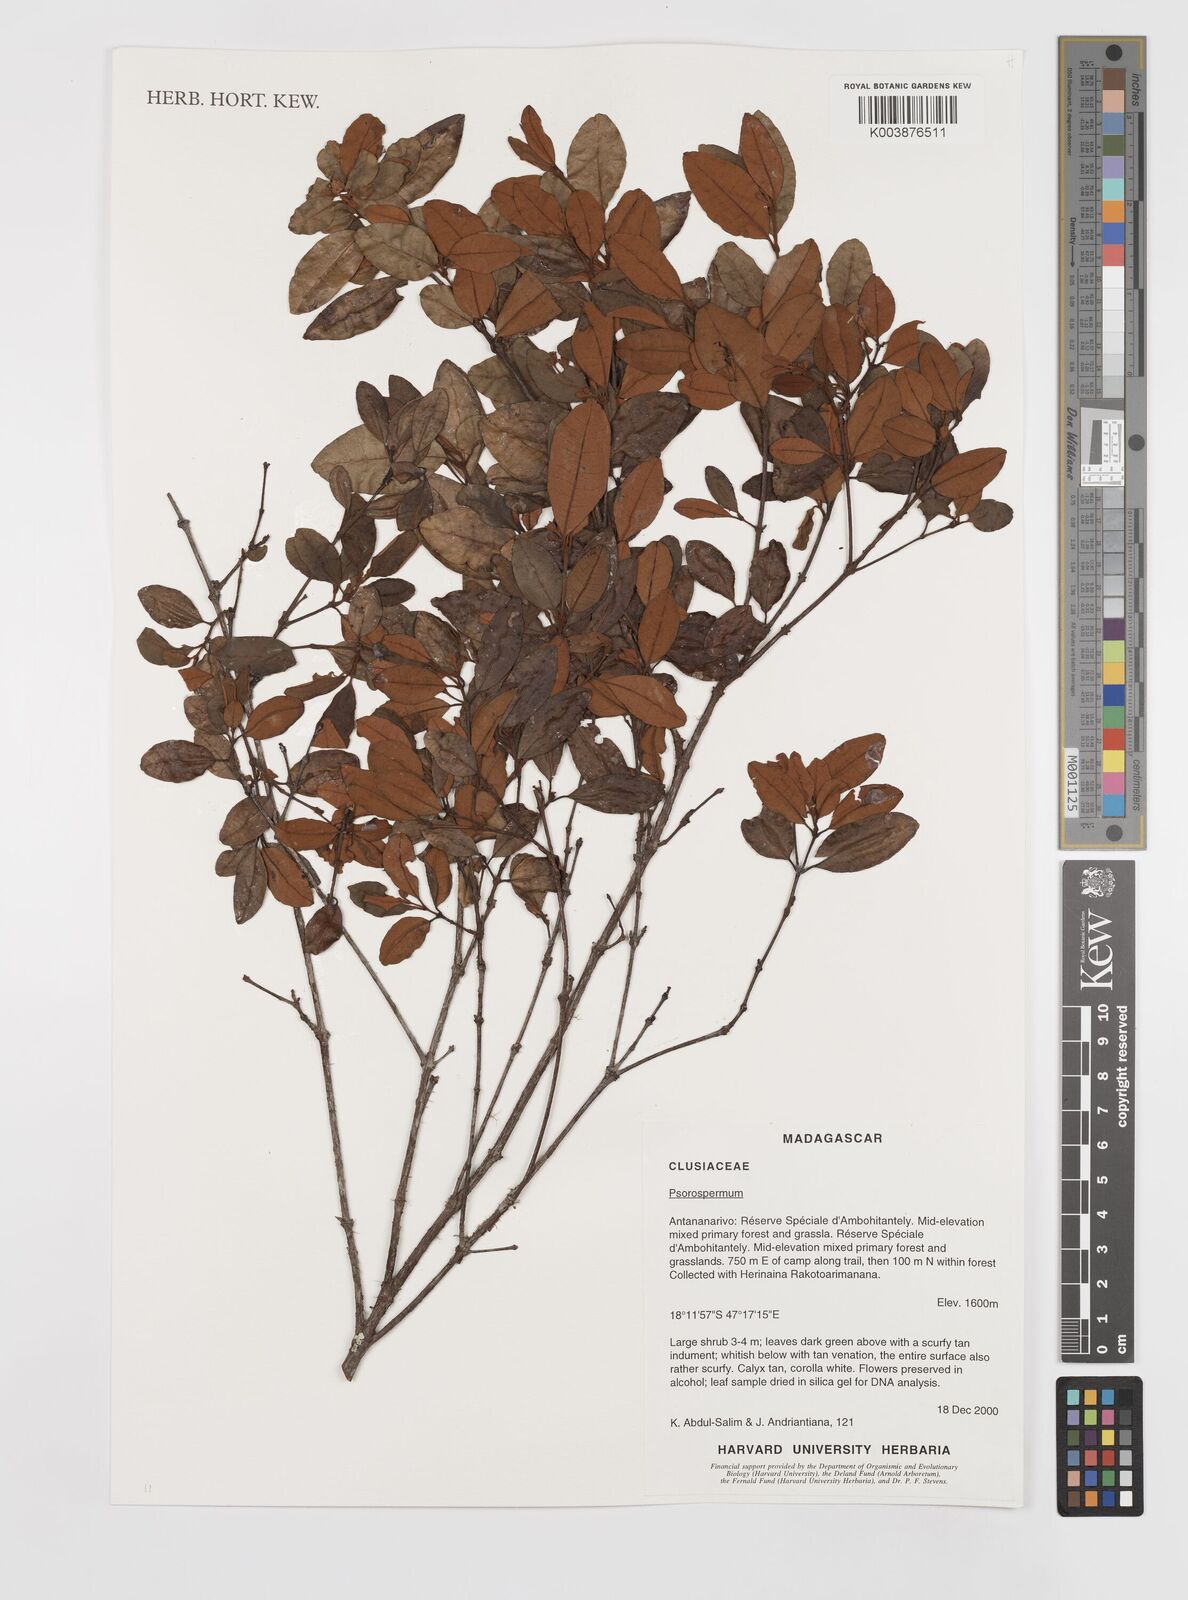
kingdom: Plantae
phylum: Tracheophyta
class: Magnoliopsida
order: Malpighiales
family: Hypericaceae
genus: Psorospermum
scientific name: Psorospermum
